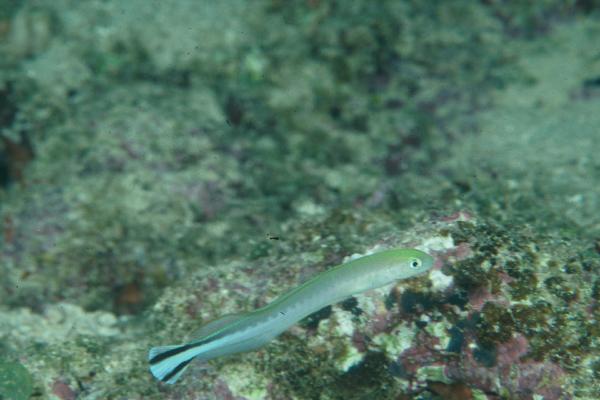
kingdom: Animalia
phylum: Chordata
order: Perciformes
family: Malacanthidae
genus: Malacanthus
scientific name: Malacanthus brevirostris
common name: Flagtail blanquillo
